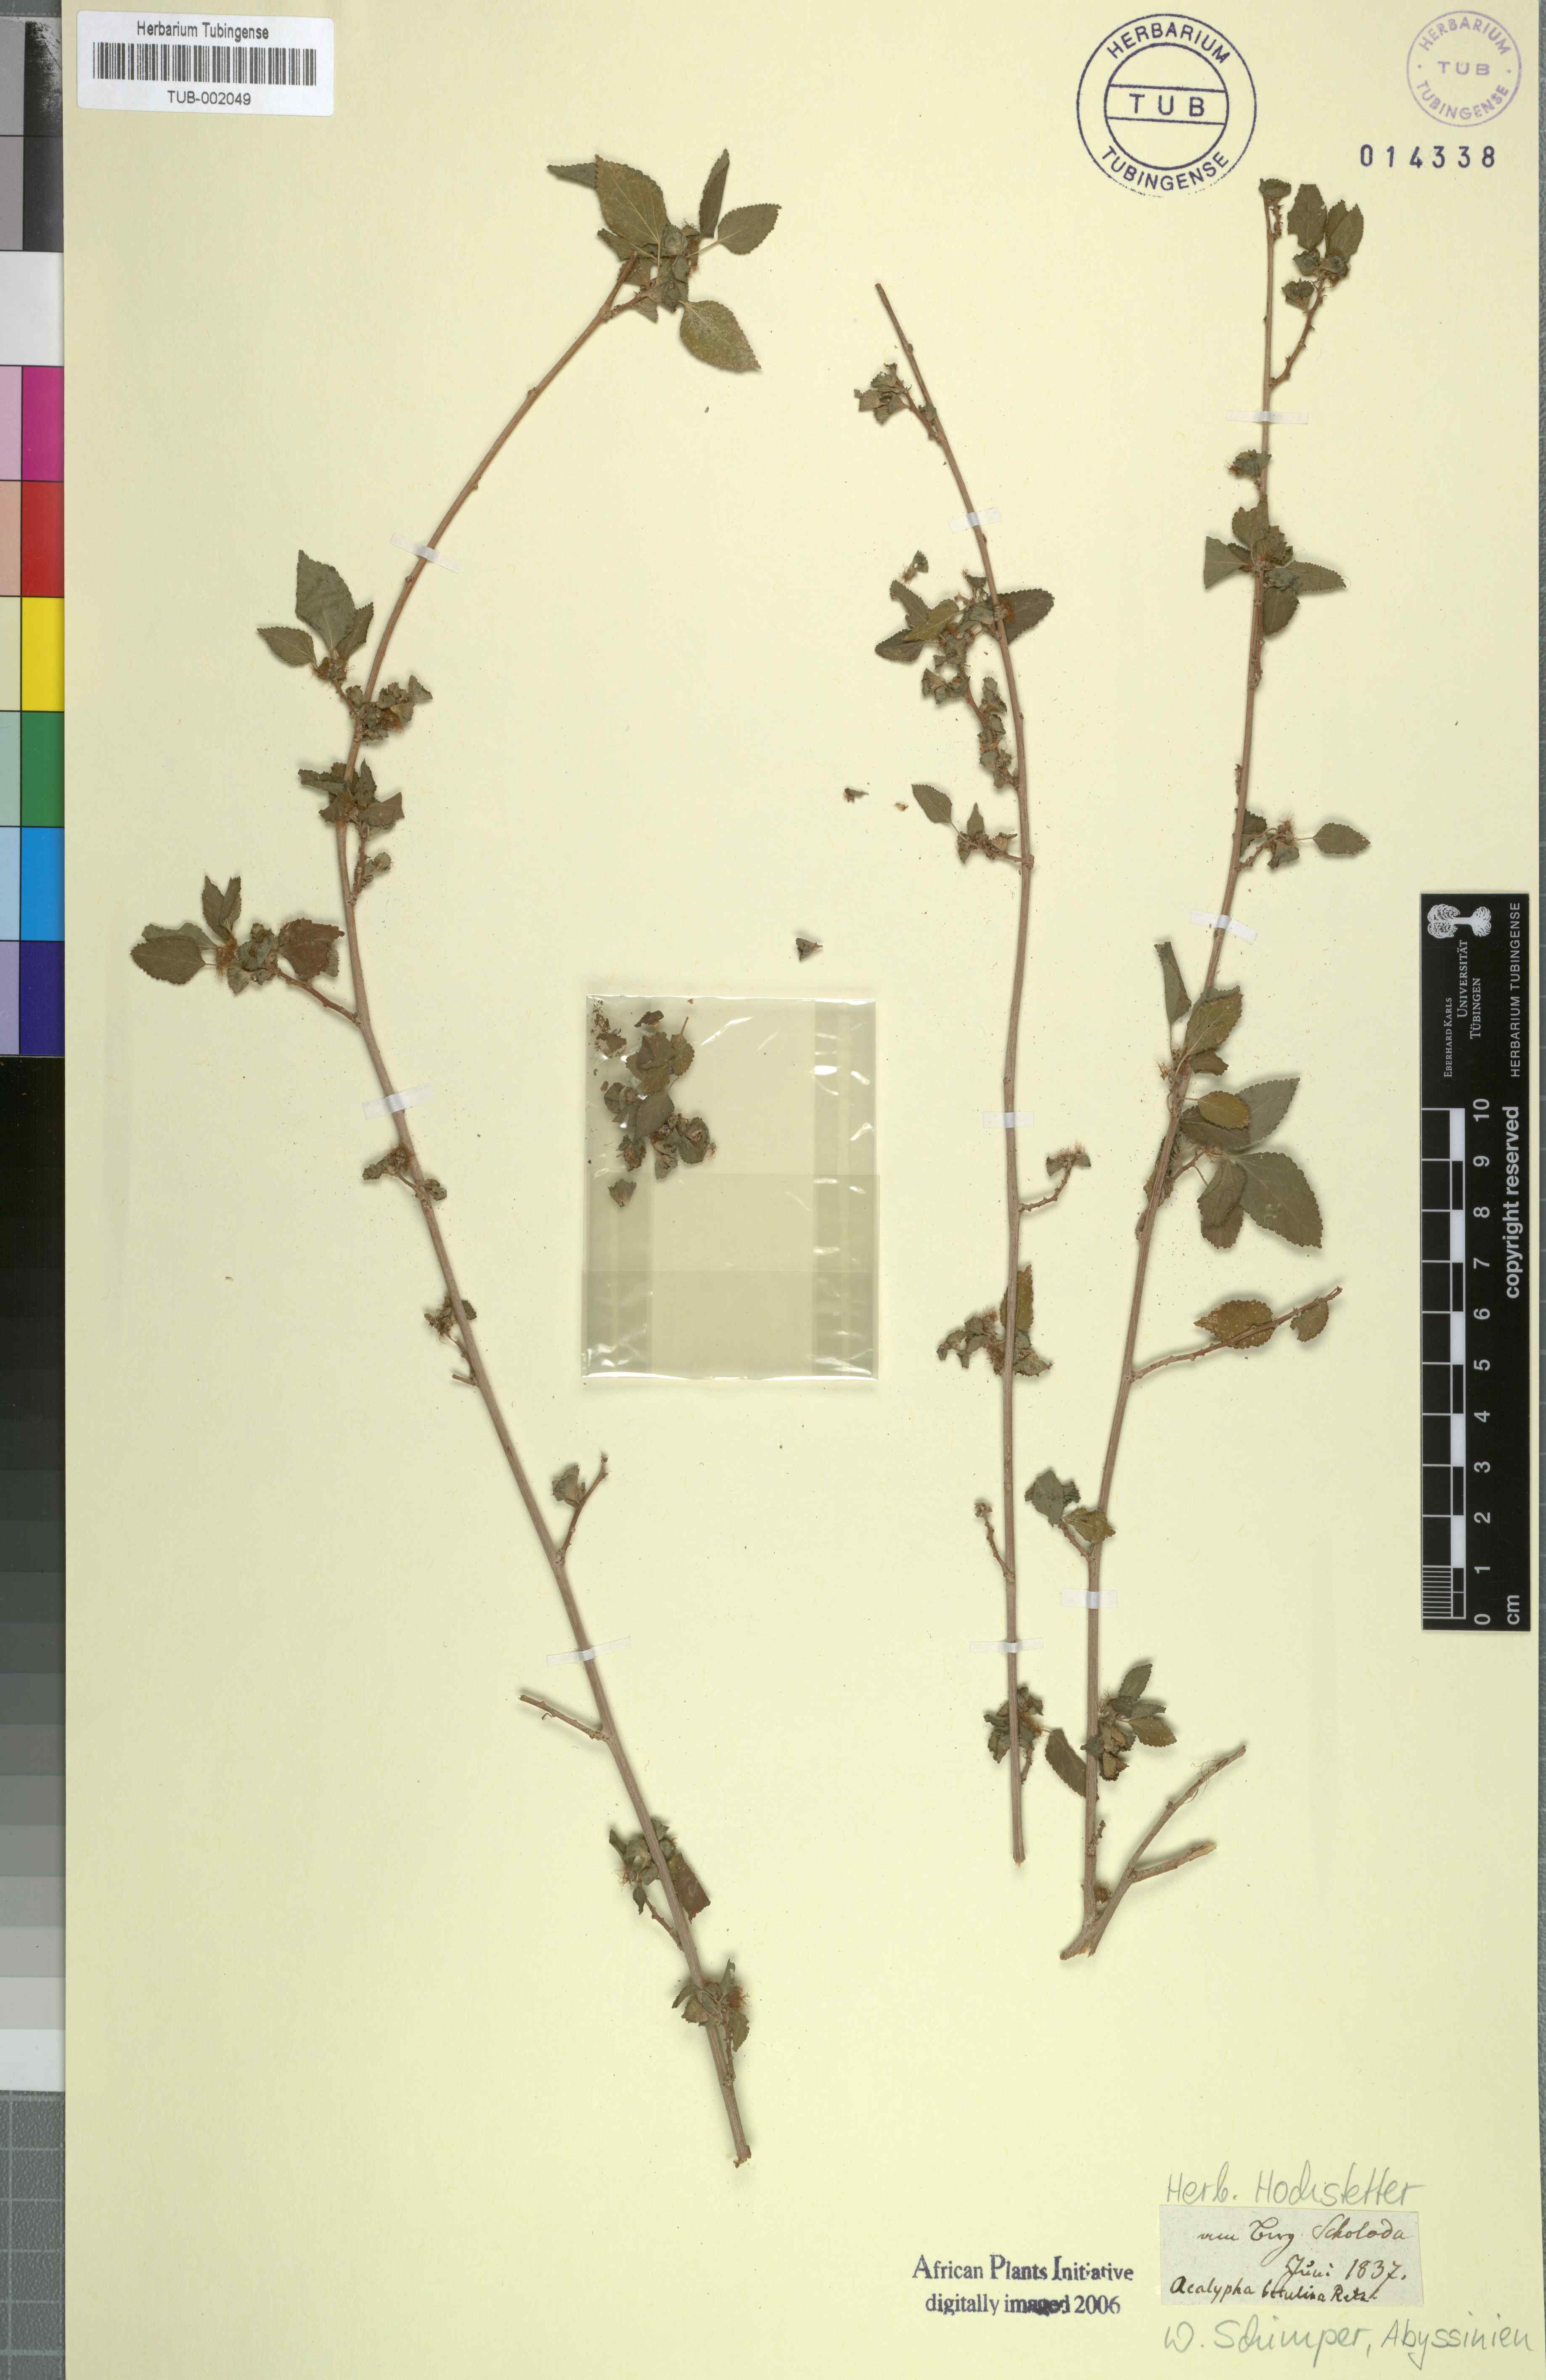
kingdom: Plantae
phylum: Tracheophyta
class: Magnoliopsida
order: Malpighiales
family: Euphorbiaceae
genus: Acalypha
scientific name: Acalypha fruticosa
